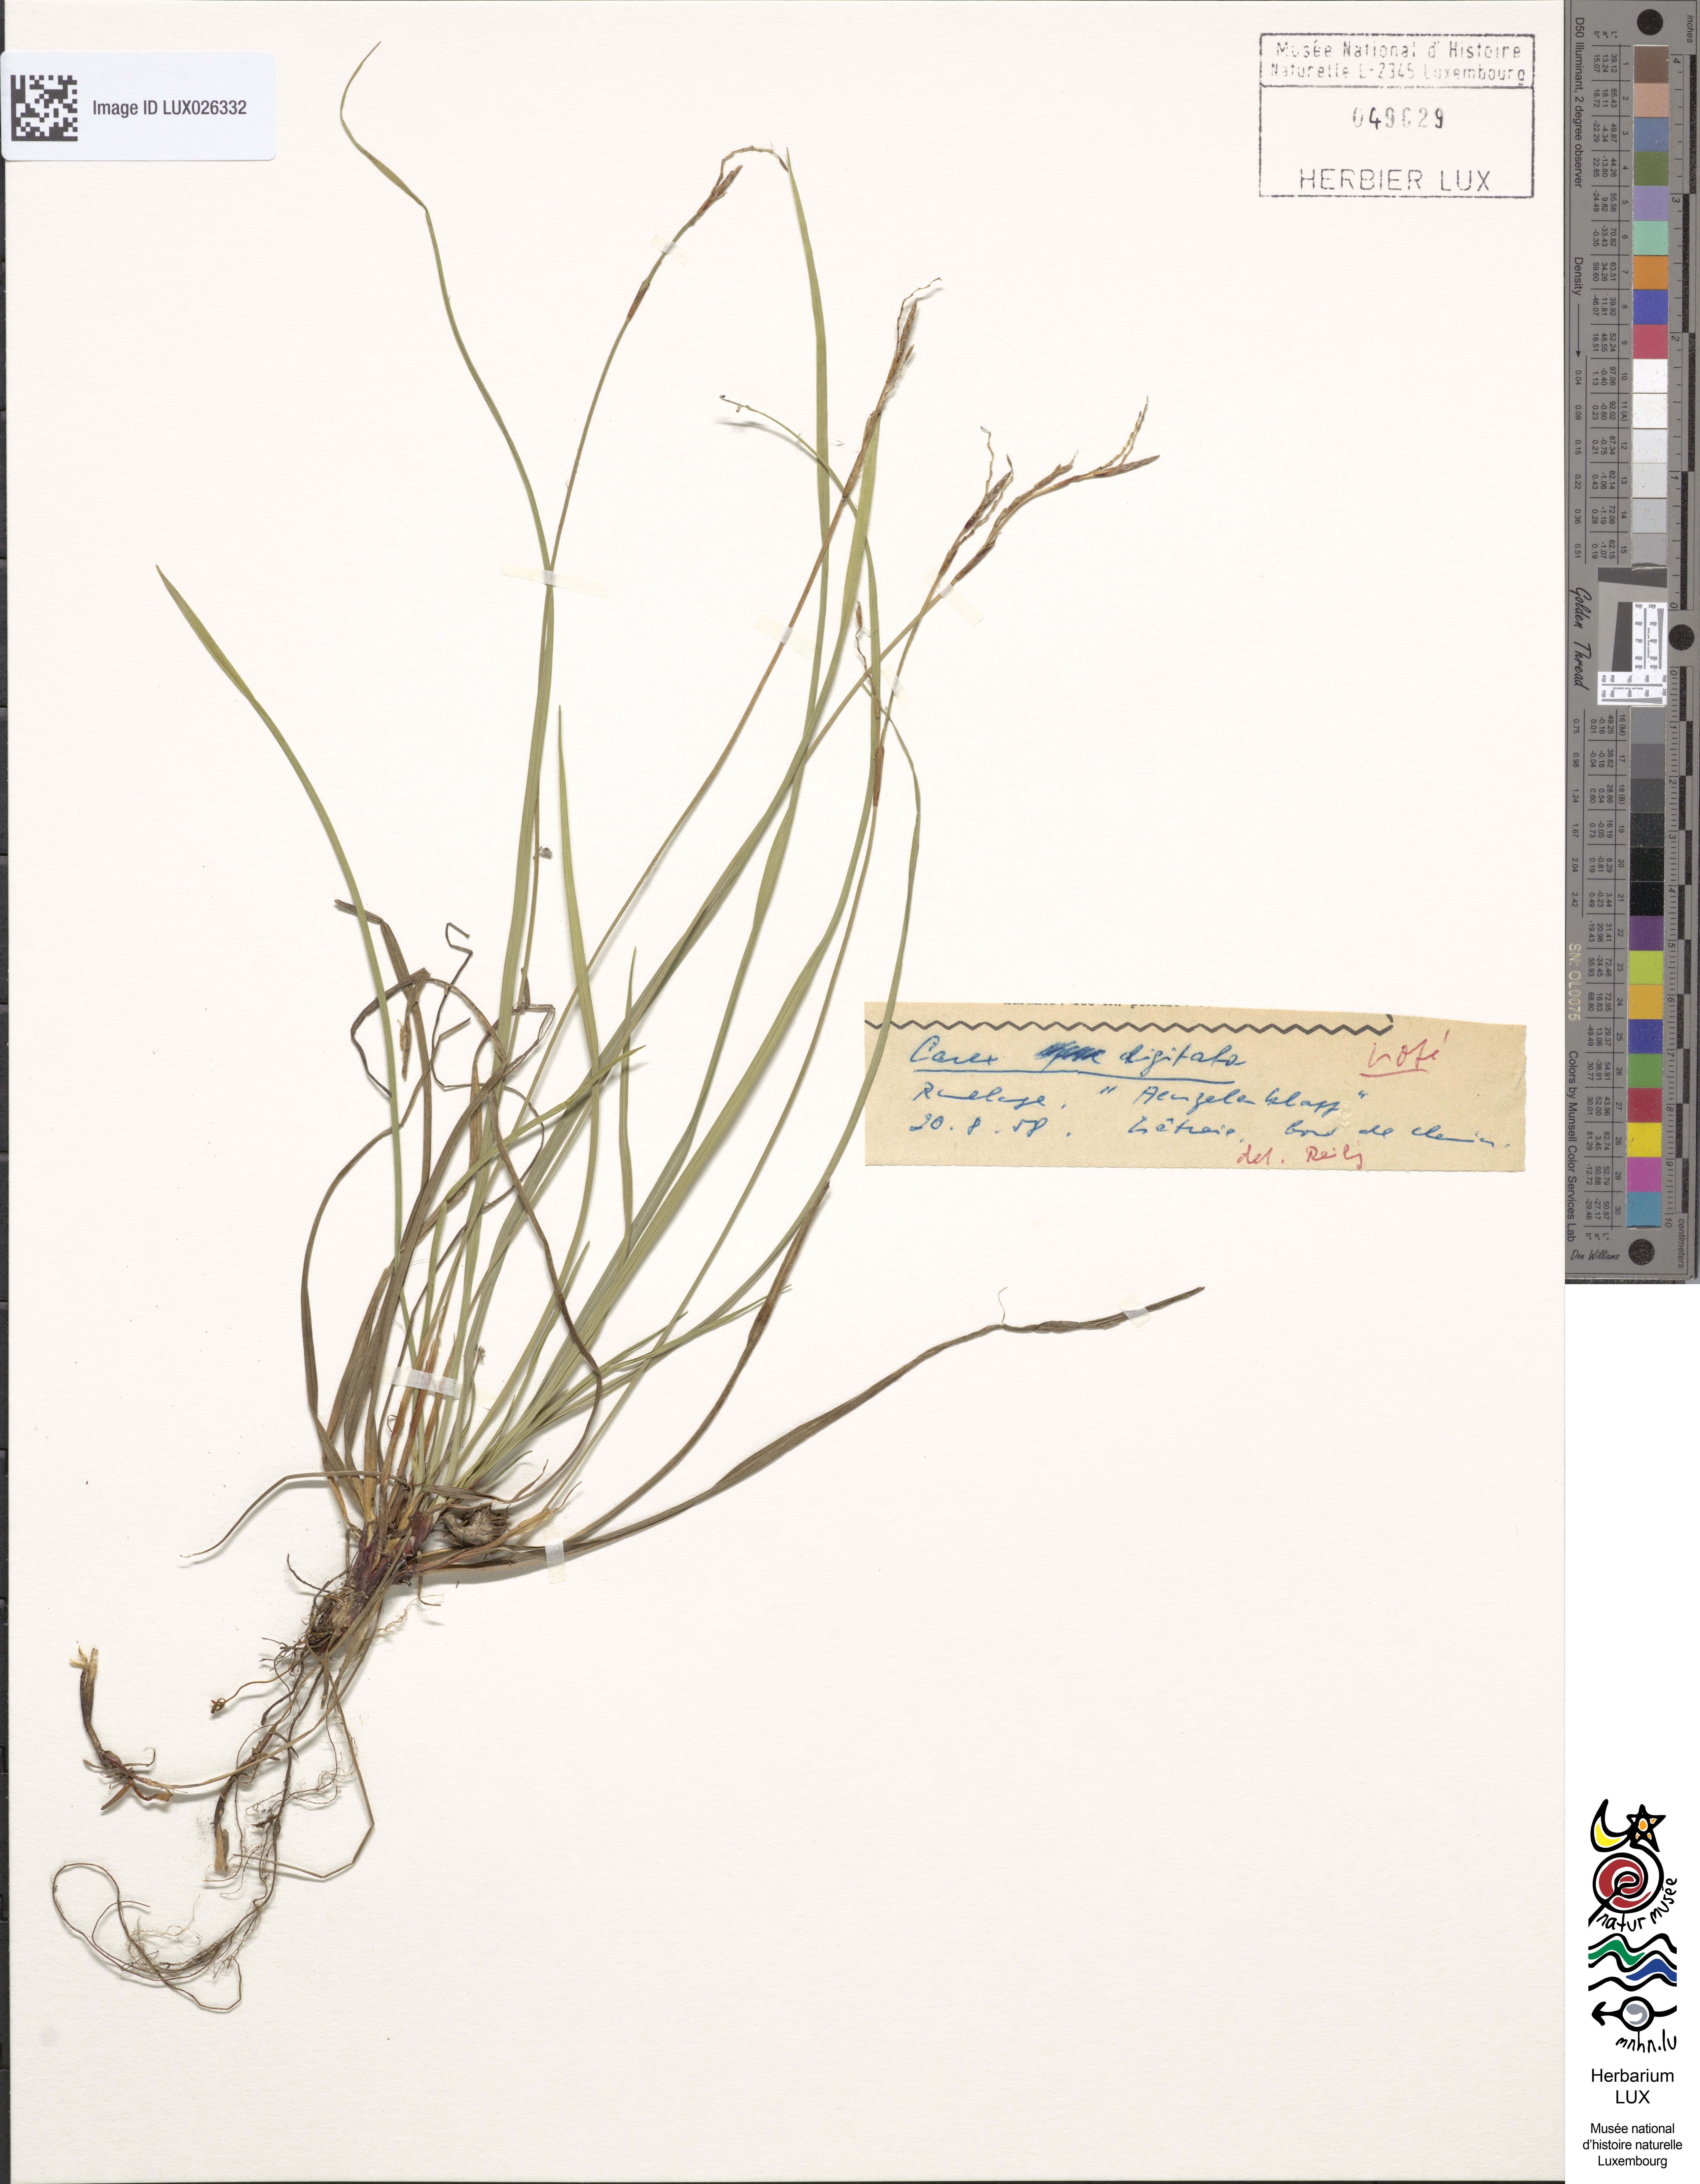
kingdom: Plantae
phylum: Tracheophyta
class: Liliopsida
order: Poales
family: Cyperaceae
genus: Carex
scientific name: Carex digitata
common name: Fingered sedge
